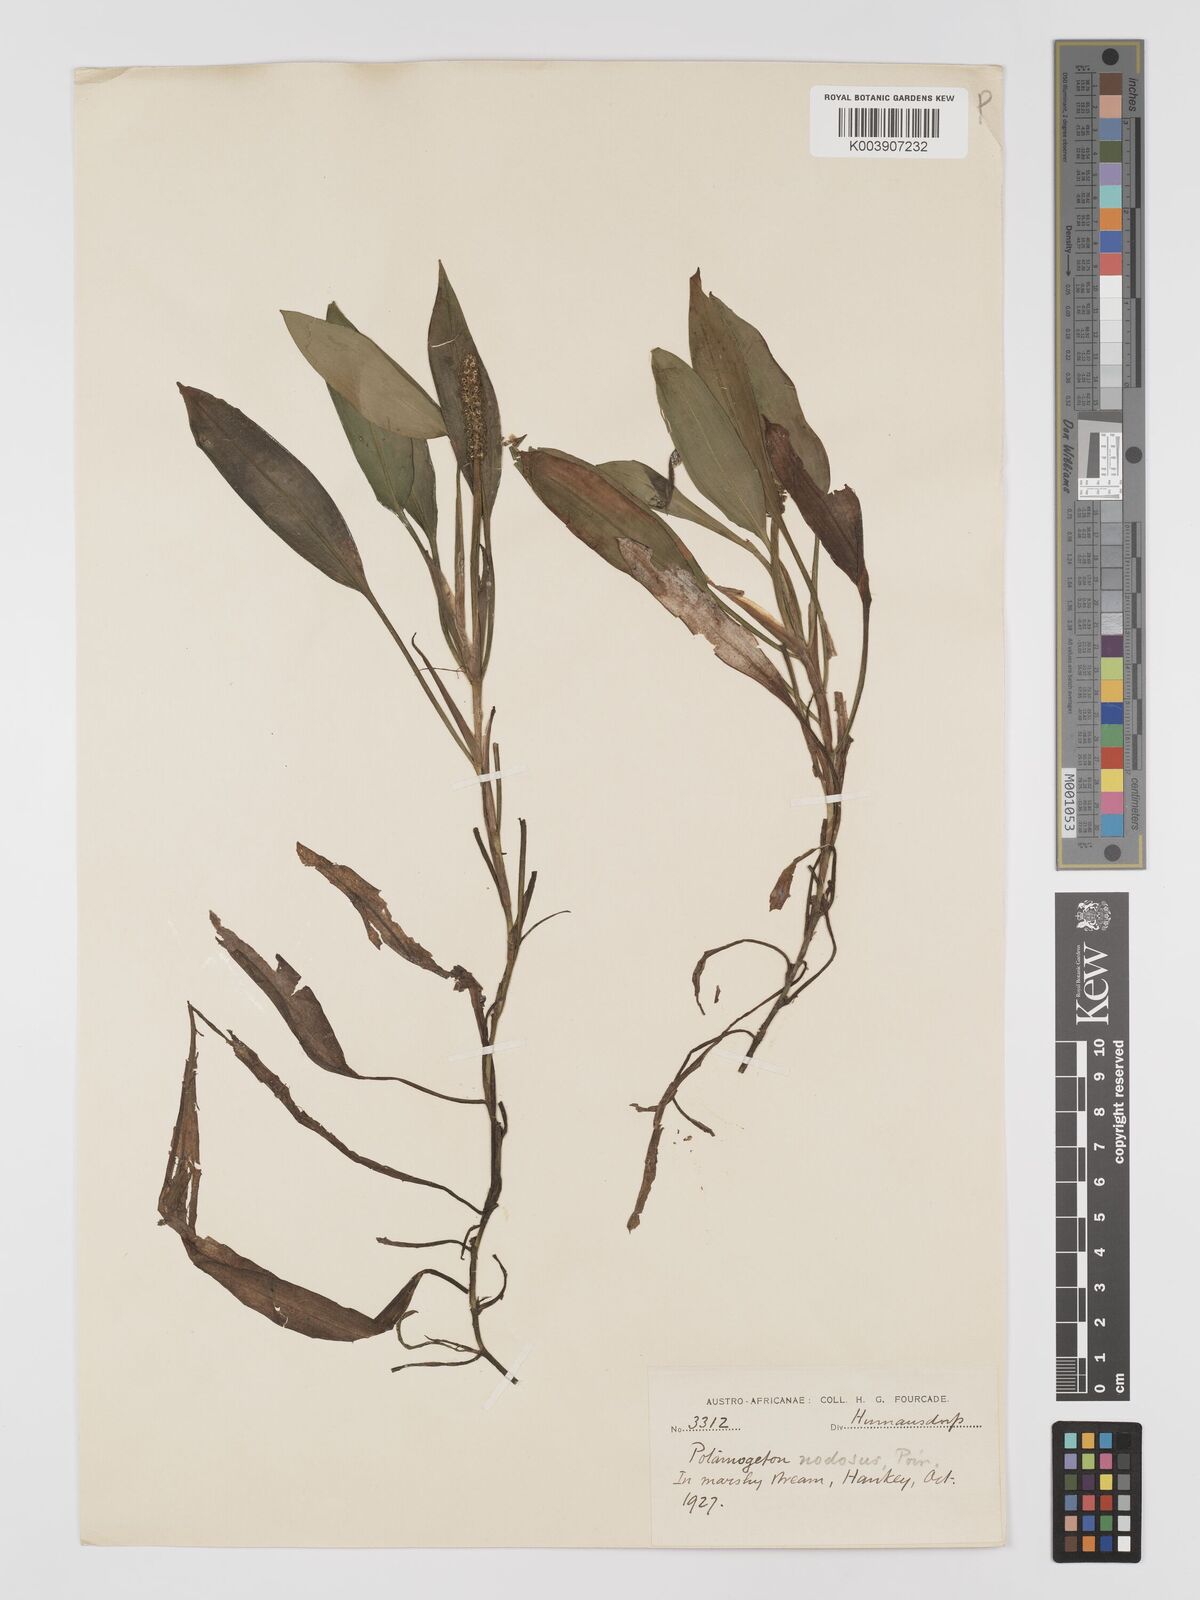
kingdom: Plantae
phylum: Tracheophyta
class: Liliopsida
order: Alismatales
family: Potamogetonaceae
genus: Potamogeton
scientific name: Potamogeton nodosus
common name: Loddon pondweed
